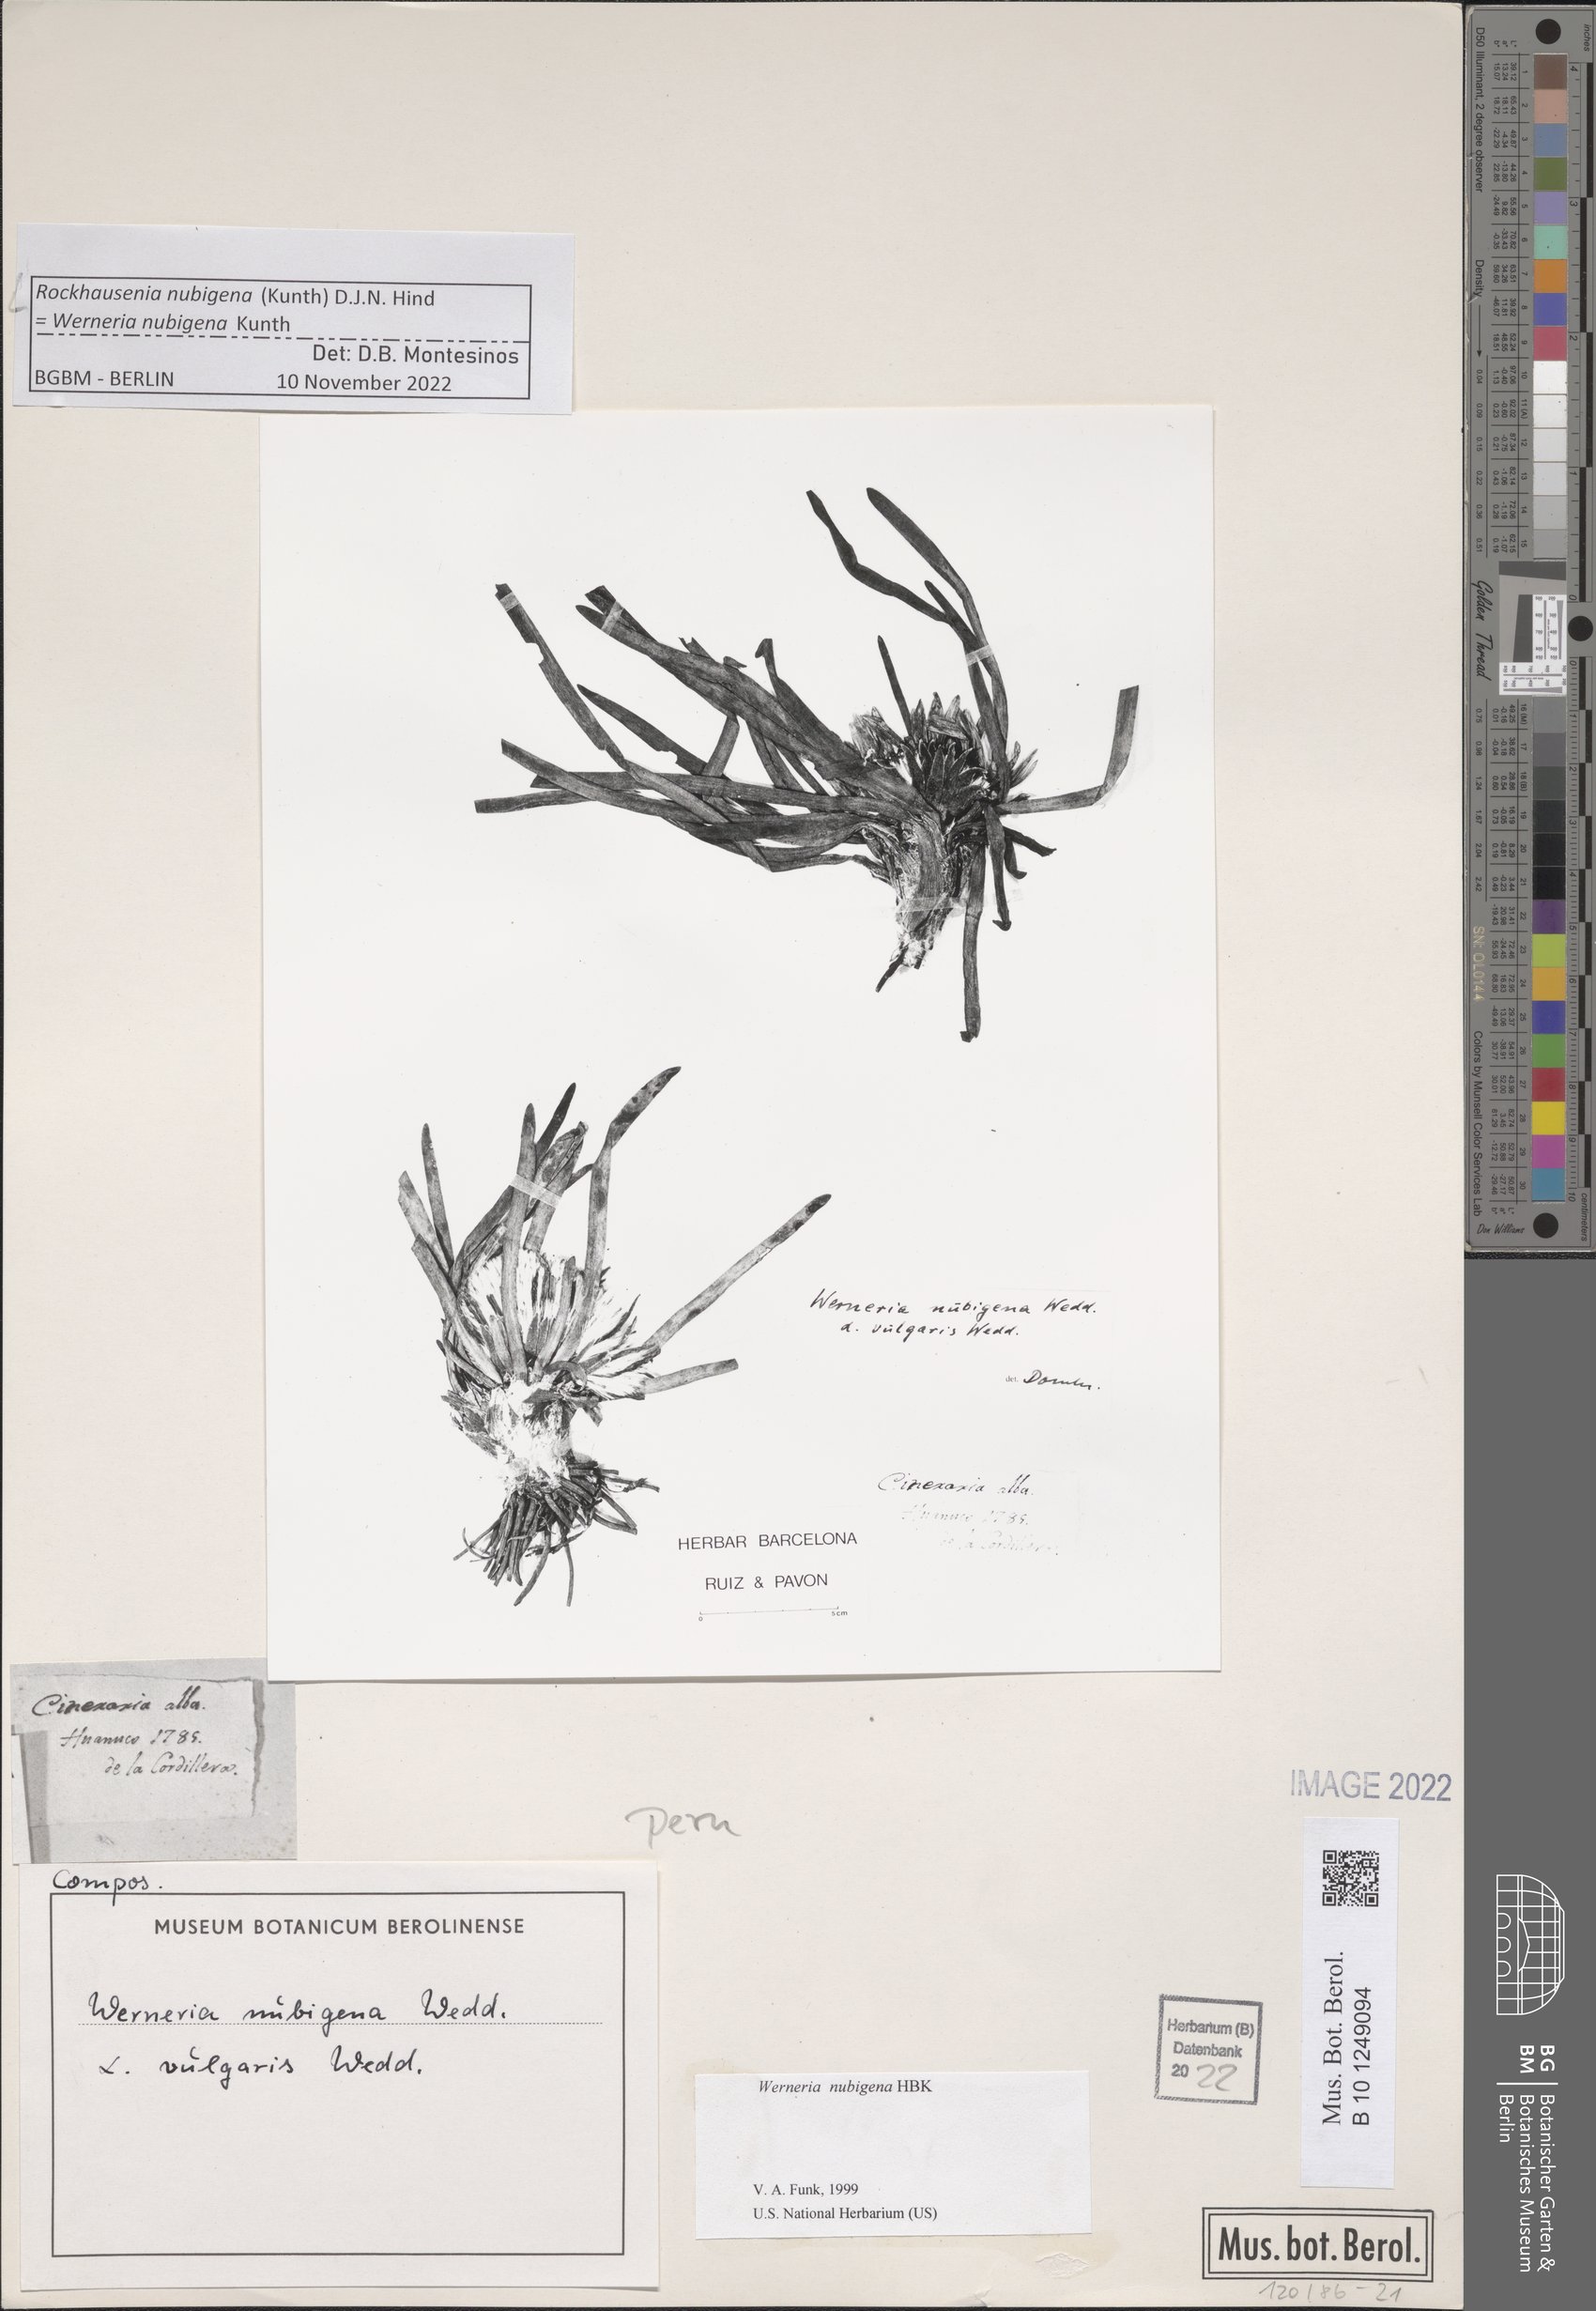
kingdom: Plantae
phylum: Tracheophyta
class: Magnoliopsida
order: Asterales
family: Asteraceae
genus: Rockhausenia
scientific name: Rockhausenia nubigena
